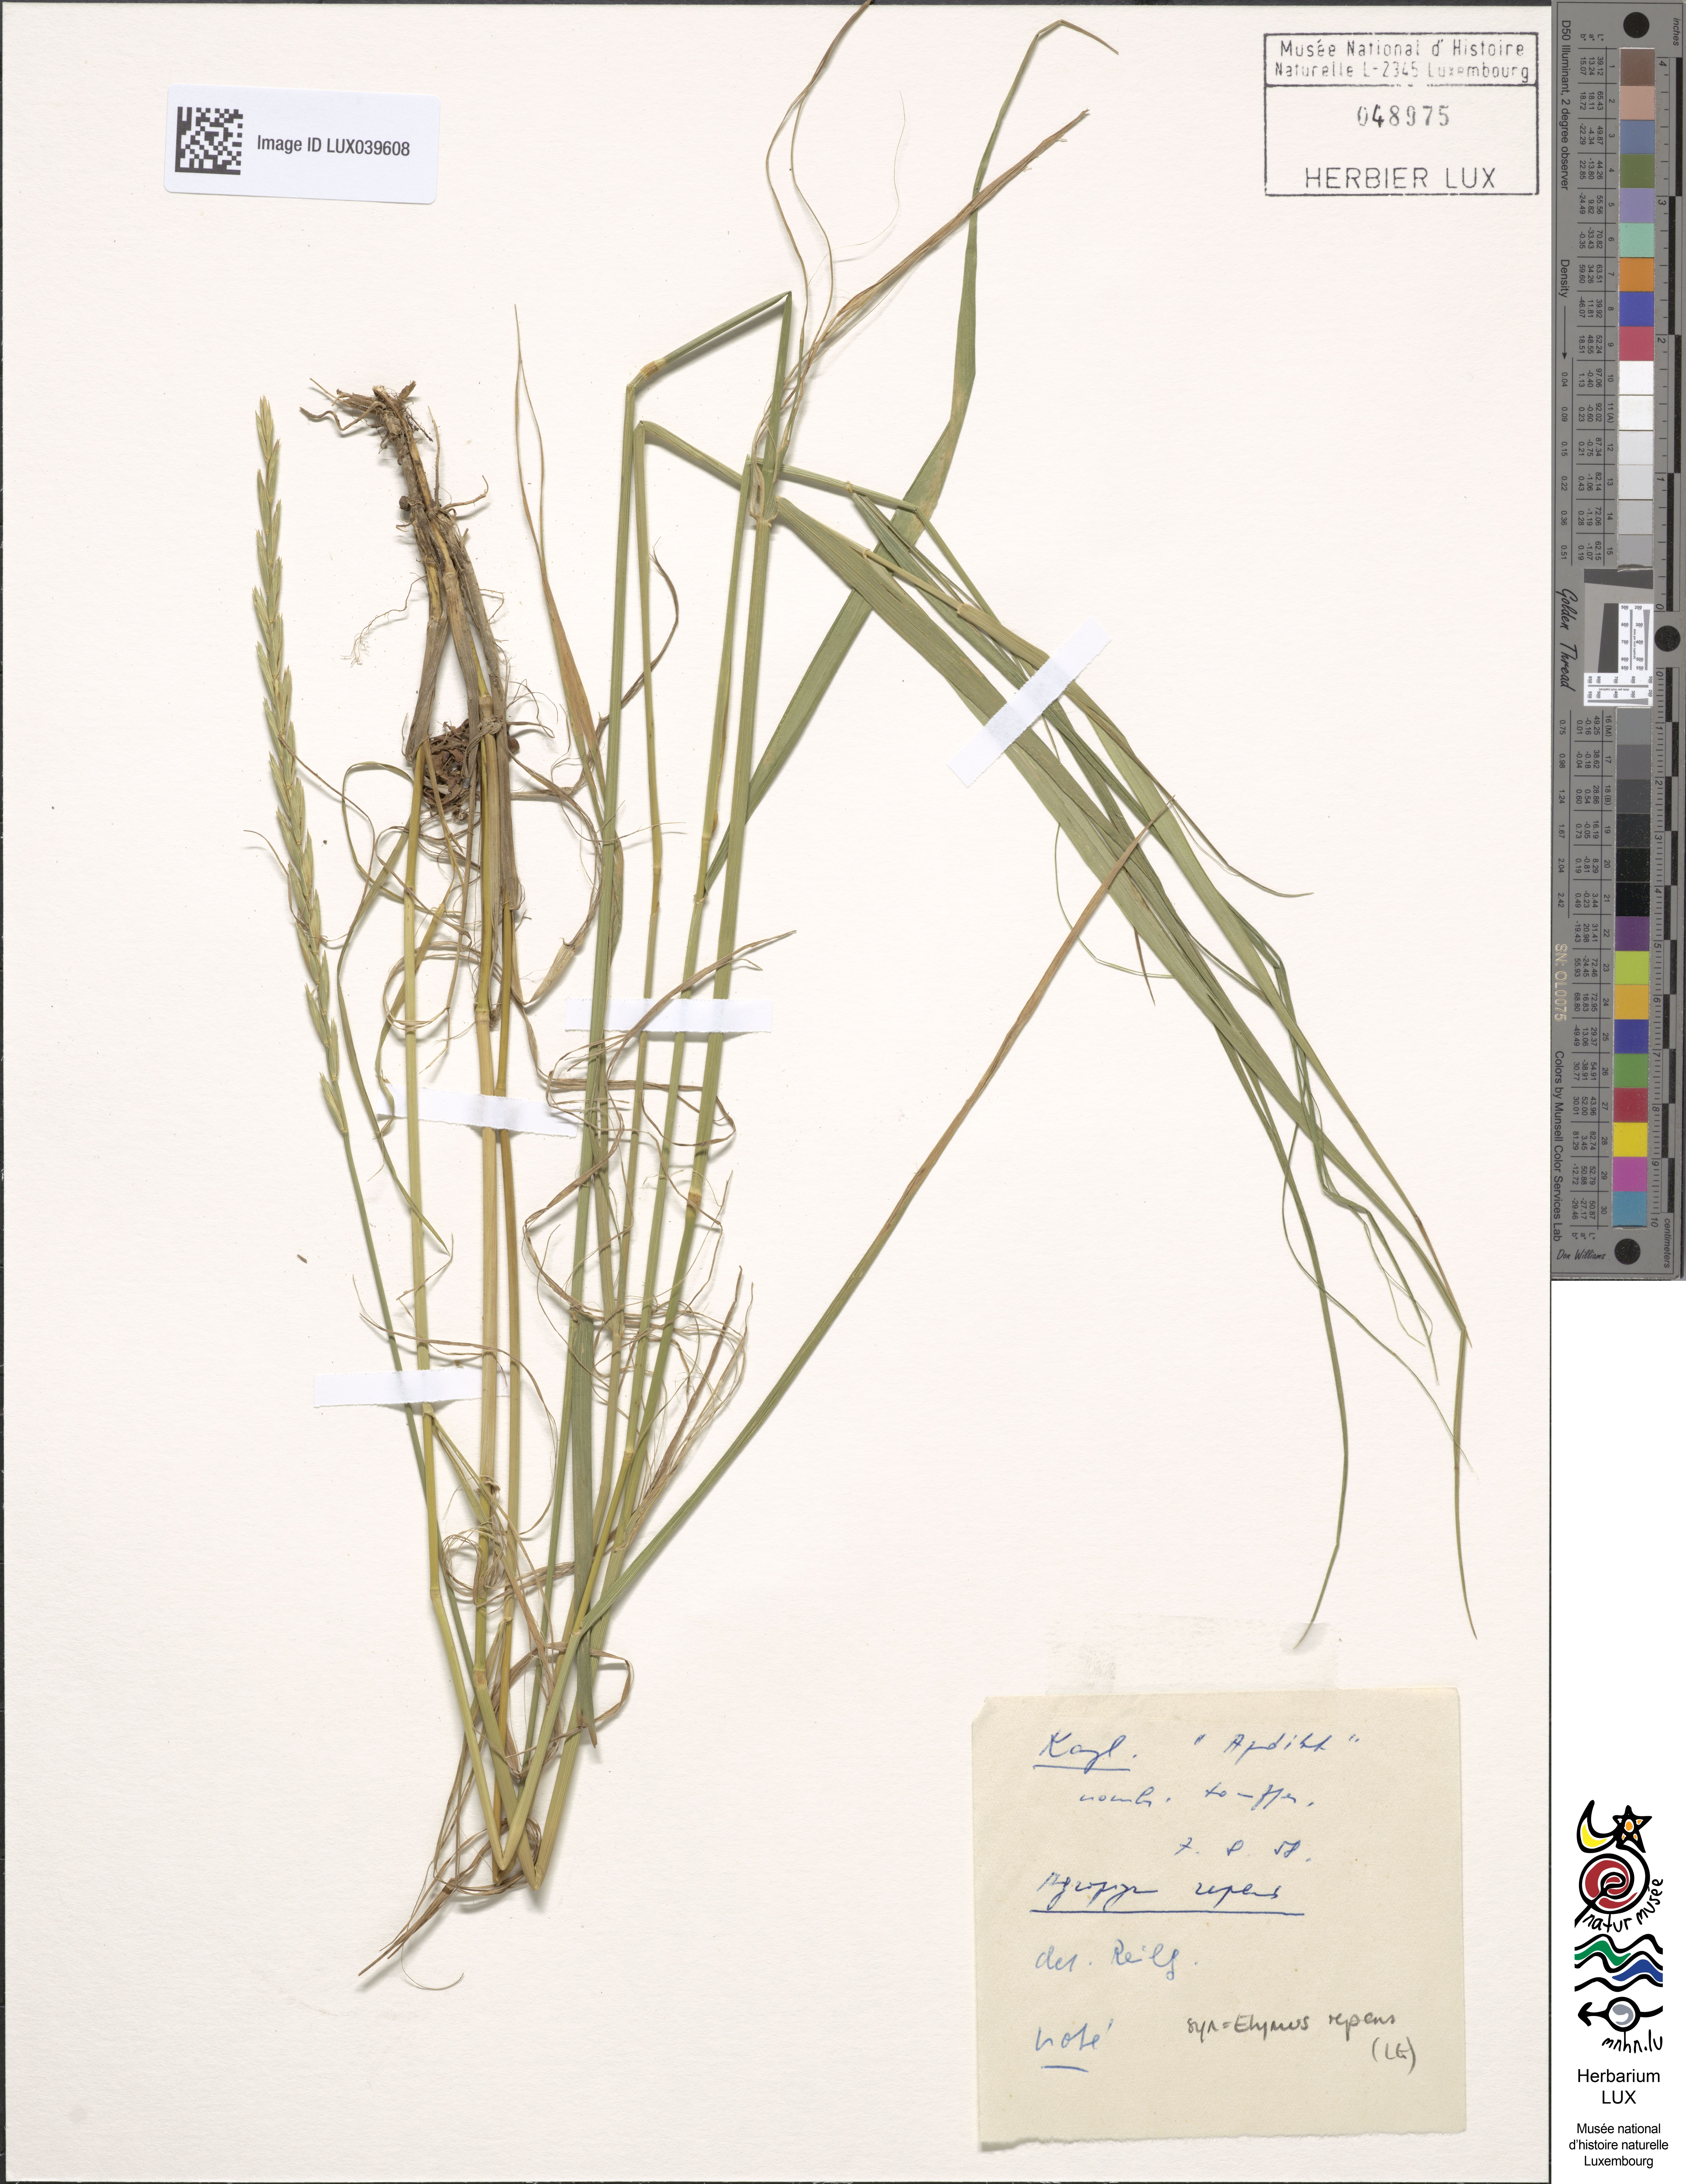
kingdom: Plantae
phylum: Tracheophyta
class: Liliopsida
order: Poales
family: Poaceae
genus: Elymus
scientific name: Elymus repens
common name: Quackgrass
